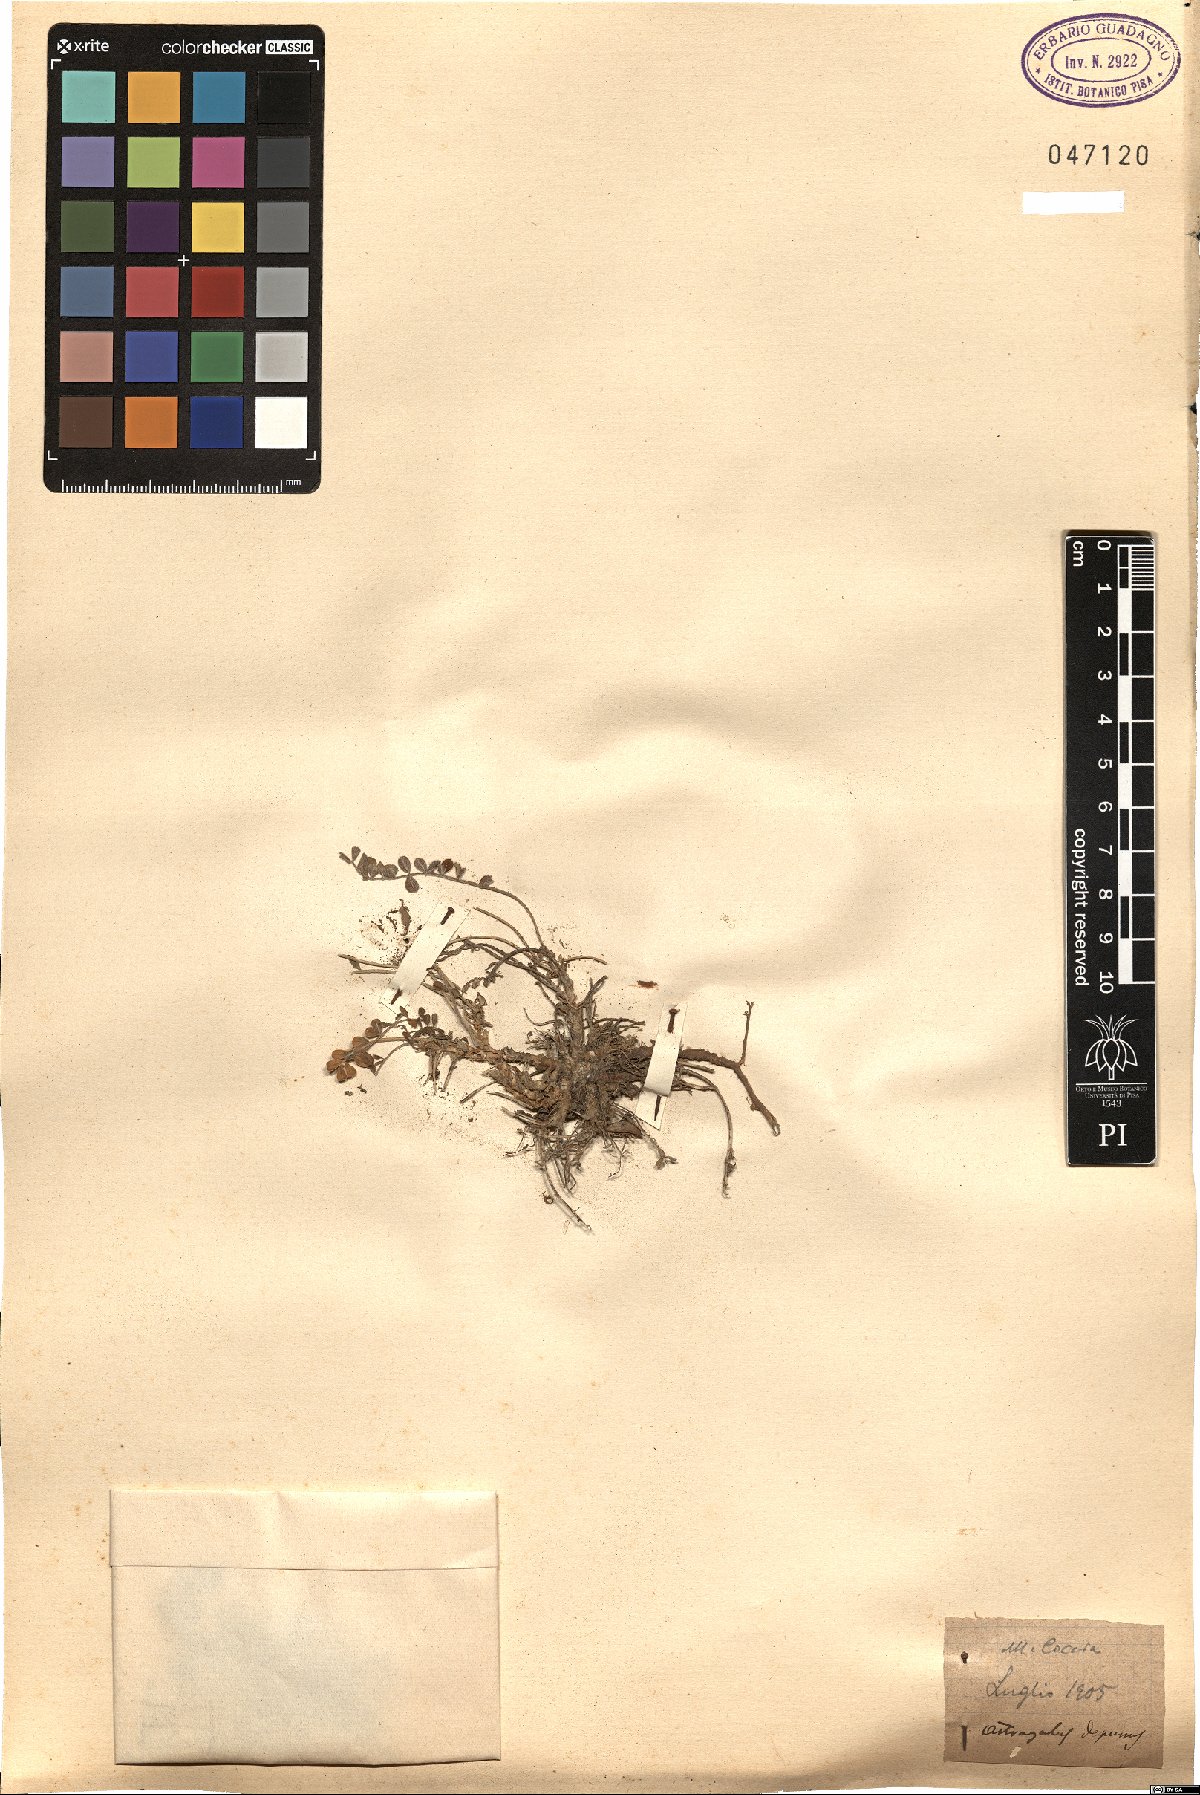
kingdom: Plantae
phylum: Tracheophyta
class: Magnoliopsida
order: Fabales
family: Fabaceae
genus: Astragalus
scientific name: Astragalus depressus
